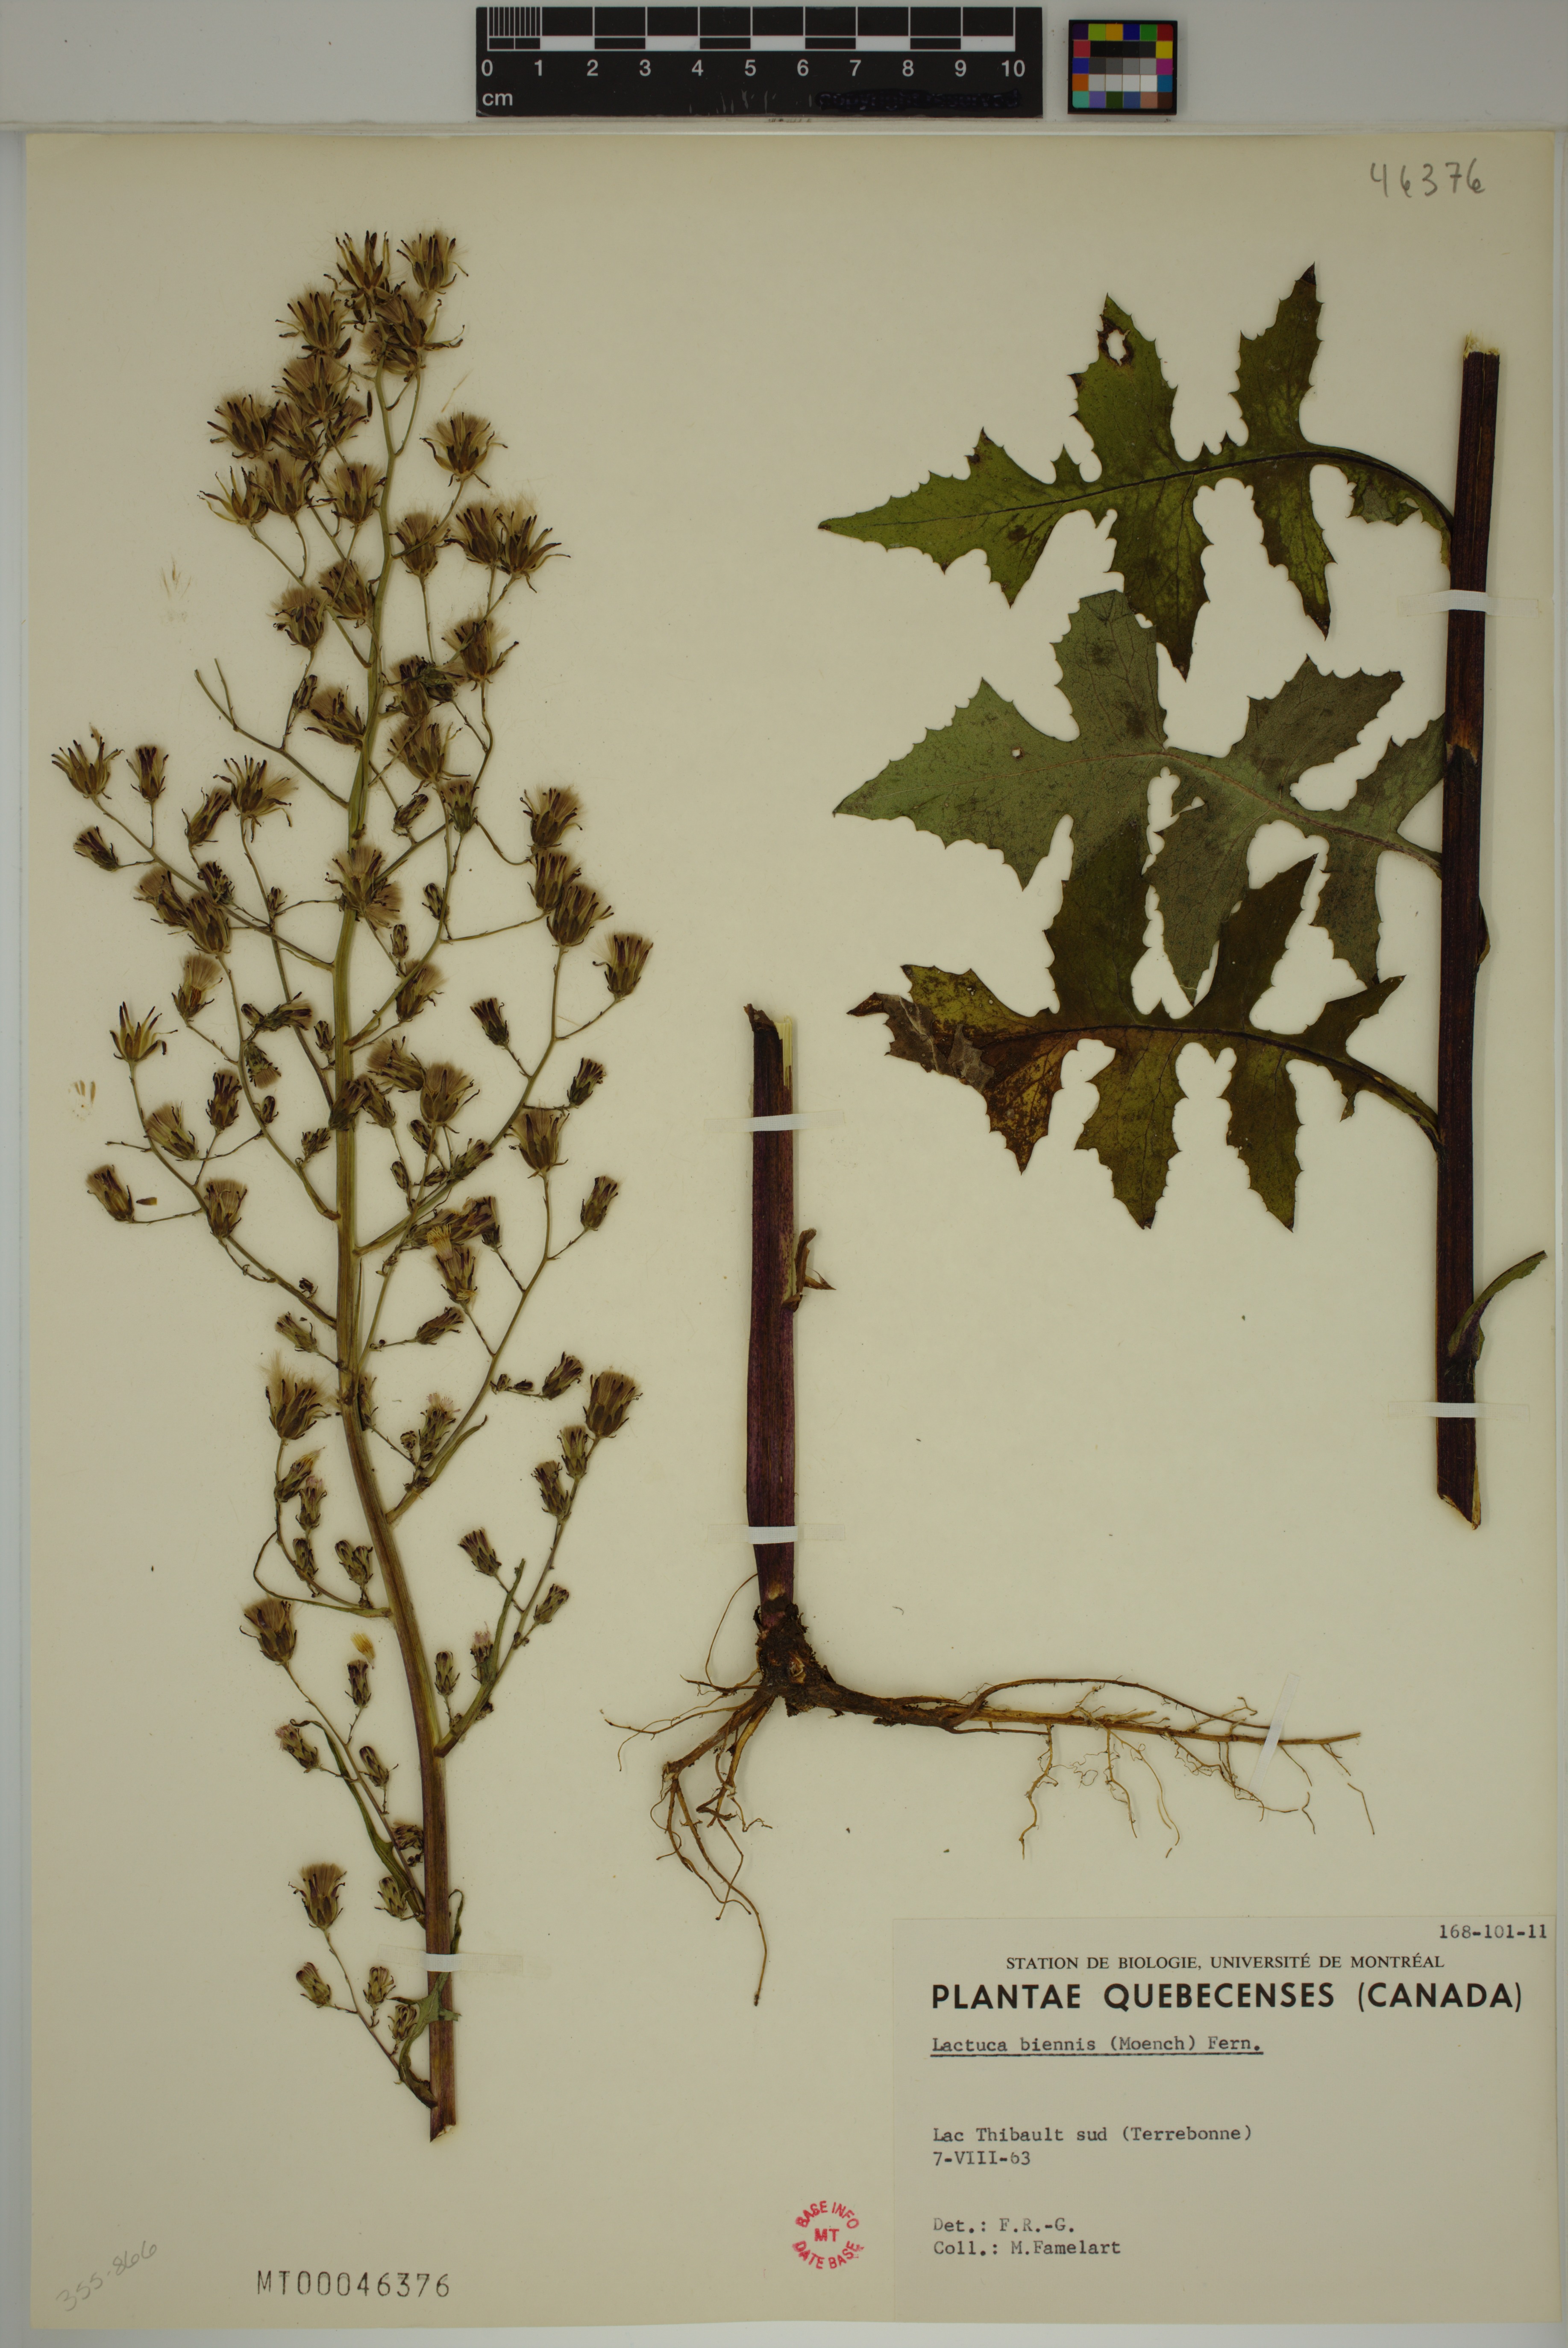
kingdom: Plantae
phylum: Tracheophyta
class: Magnoliopsida
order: Asterales
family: Asteraceae
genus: Lactuca
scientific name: Lactuca biennis
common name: Blue wood lettuce
